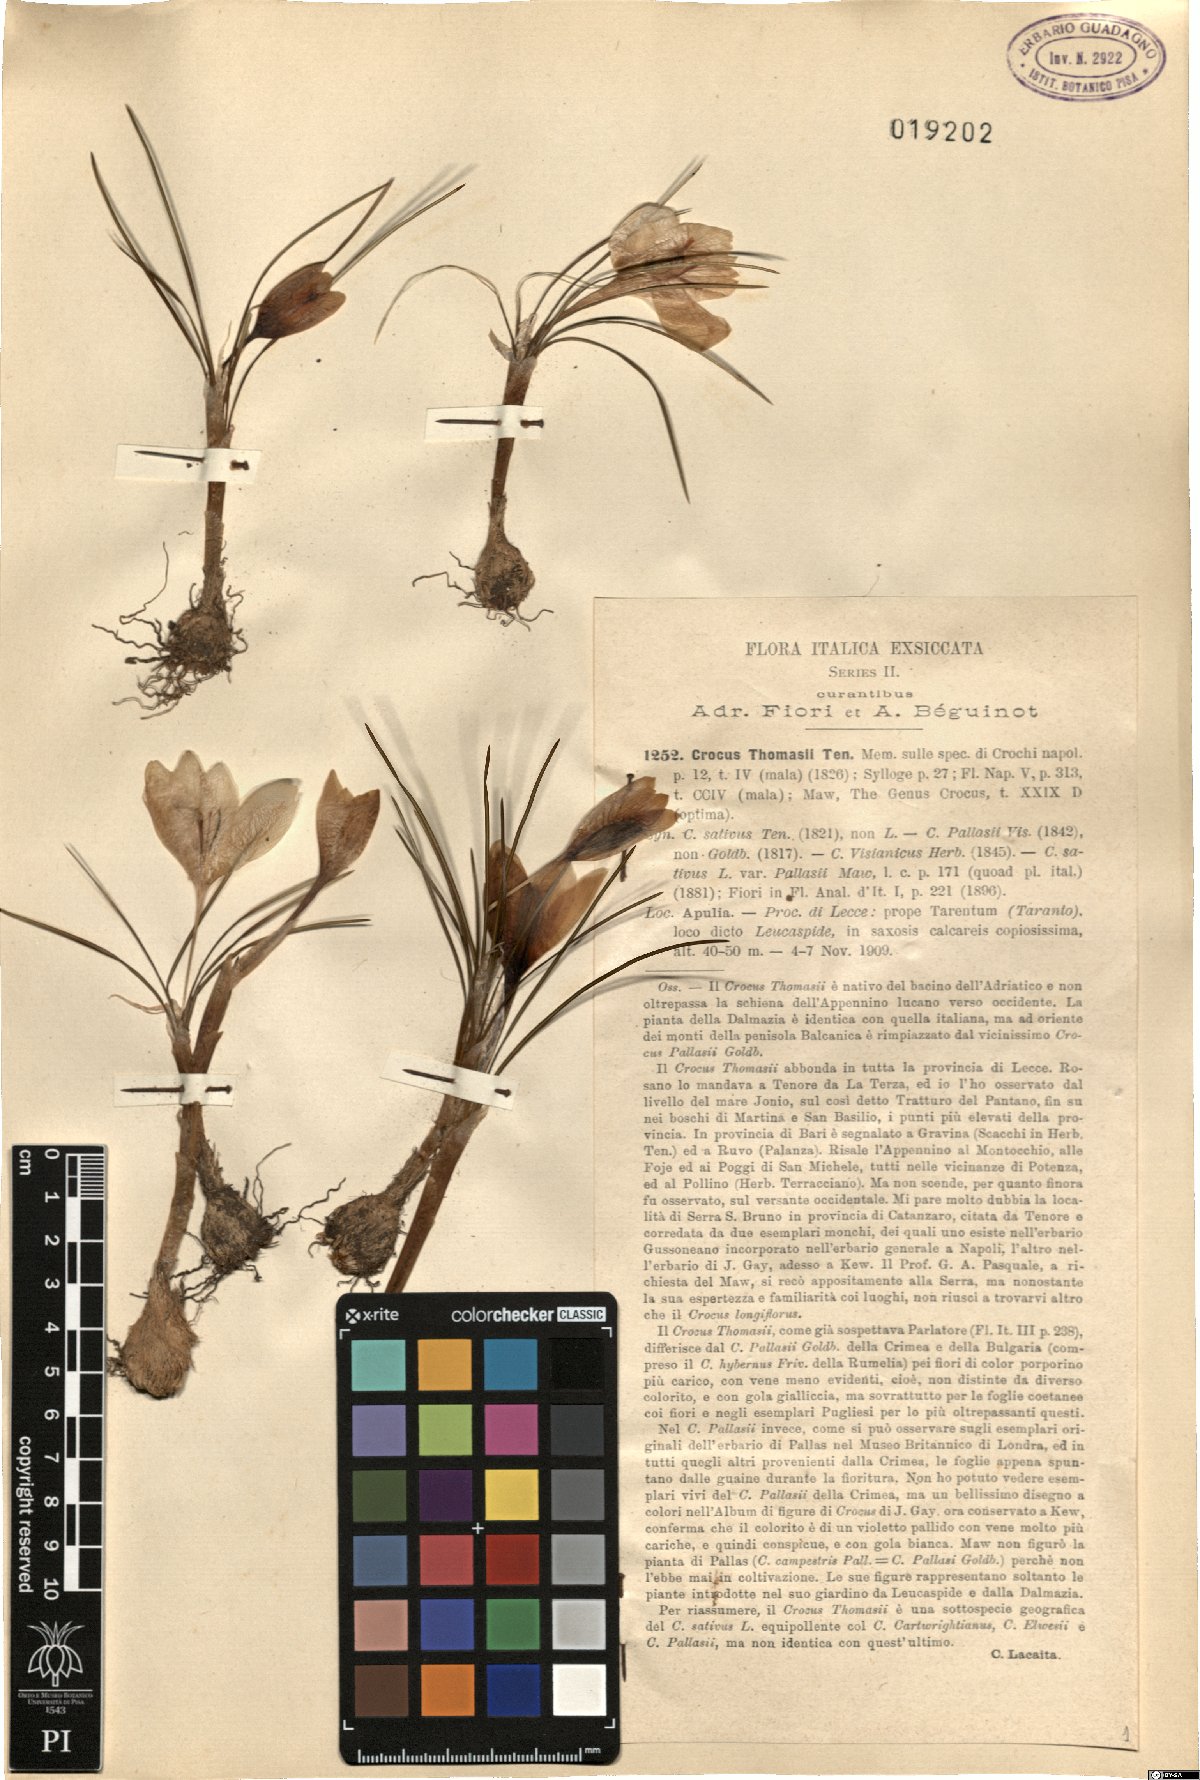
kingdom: Plantae
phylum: Tracheophyta
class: Liliopsida
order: Asparagales
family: Iridaceae
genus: Crocus
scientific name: Crocus thomasii
